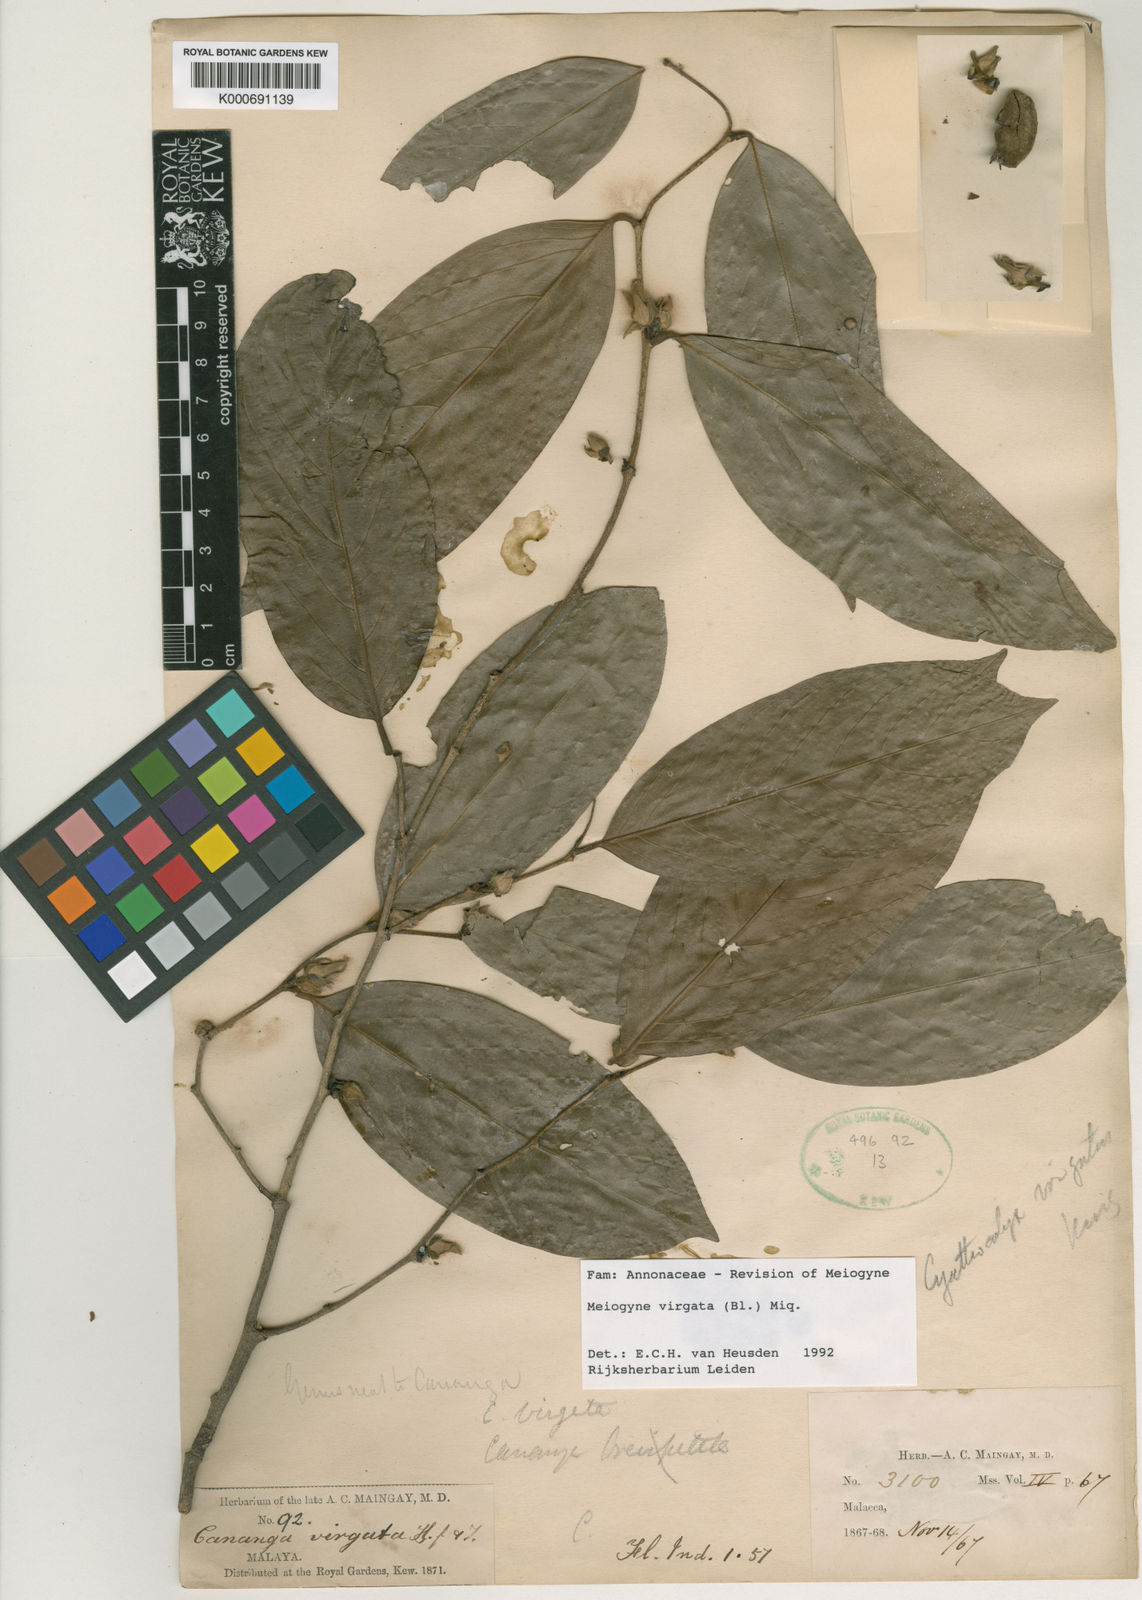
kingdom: Plantae
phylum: Tracheophyta
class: Magnoliopsida
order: Magnoliales
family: Annonaceae
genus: Meiogyne
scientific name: Meiogyne virgata
